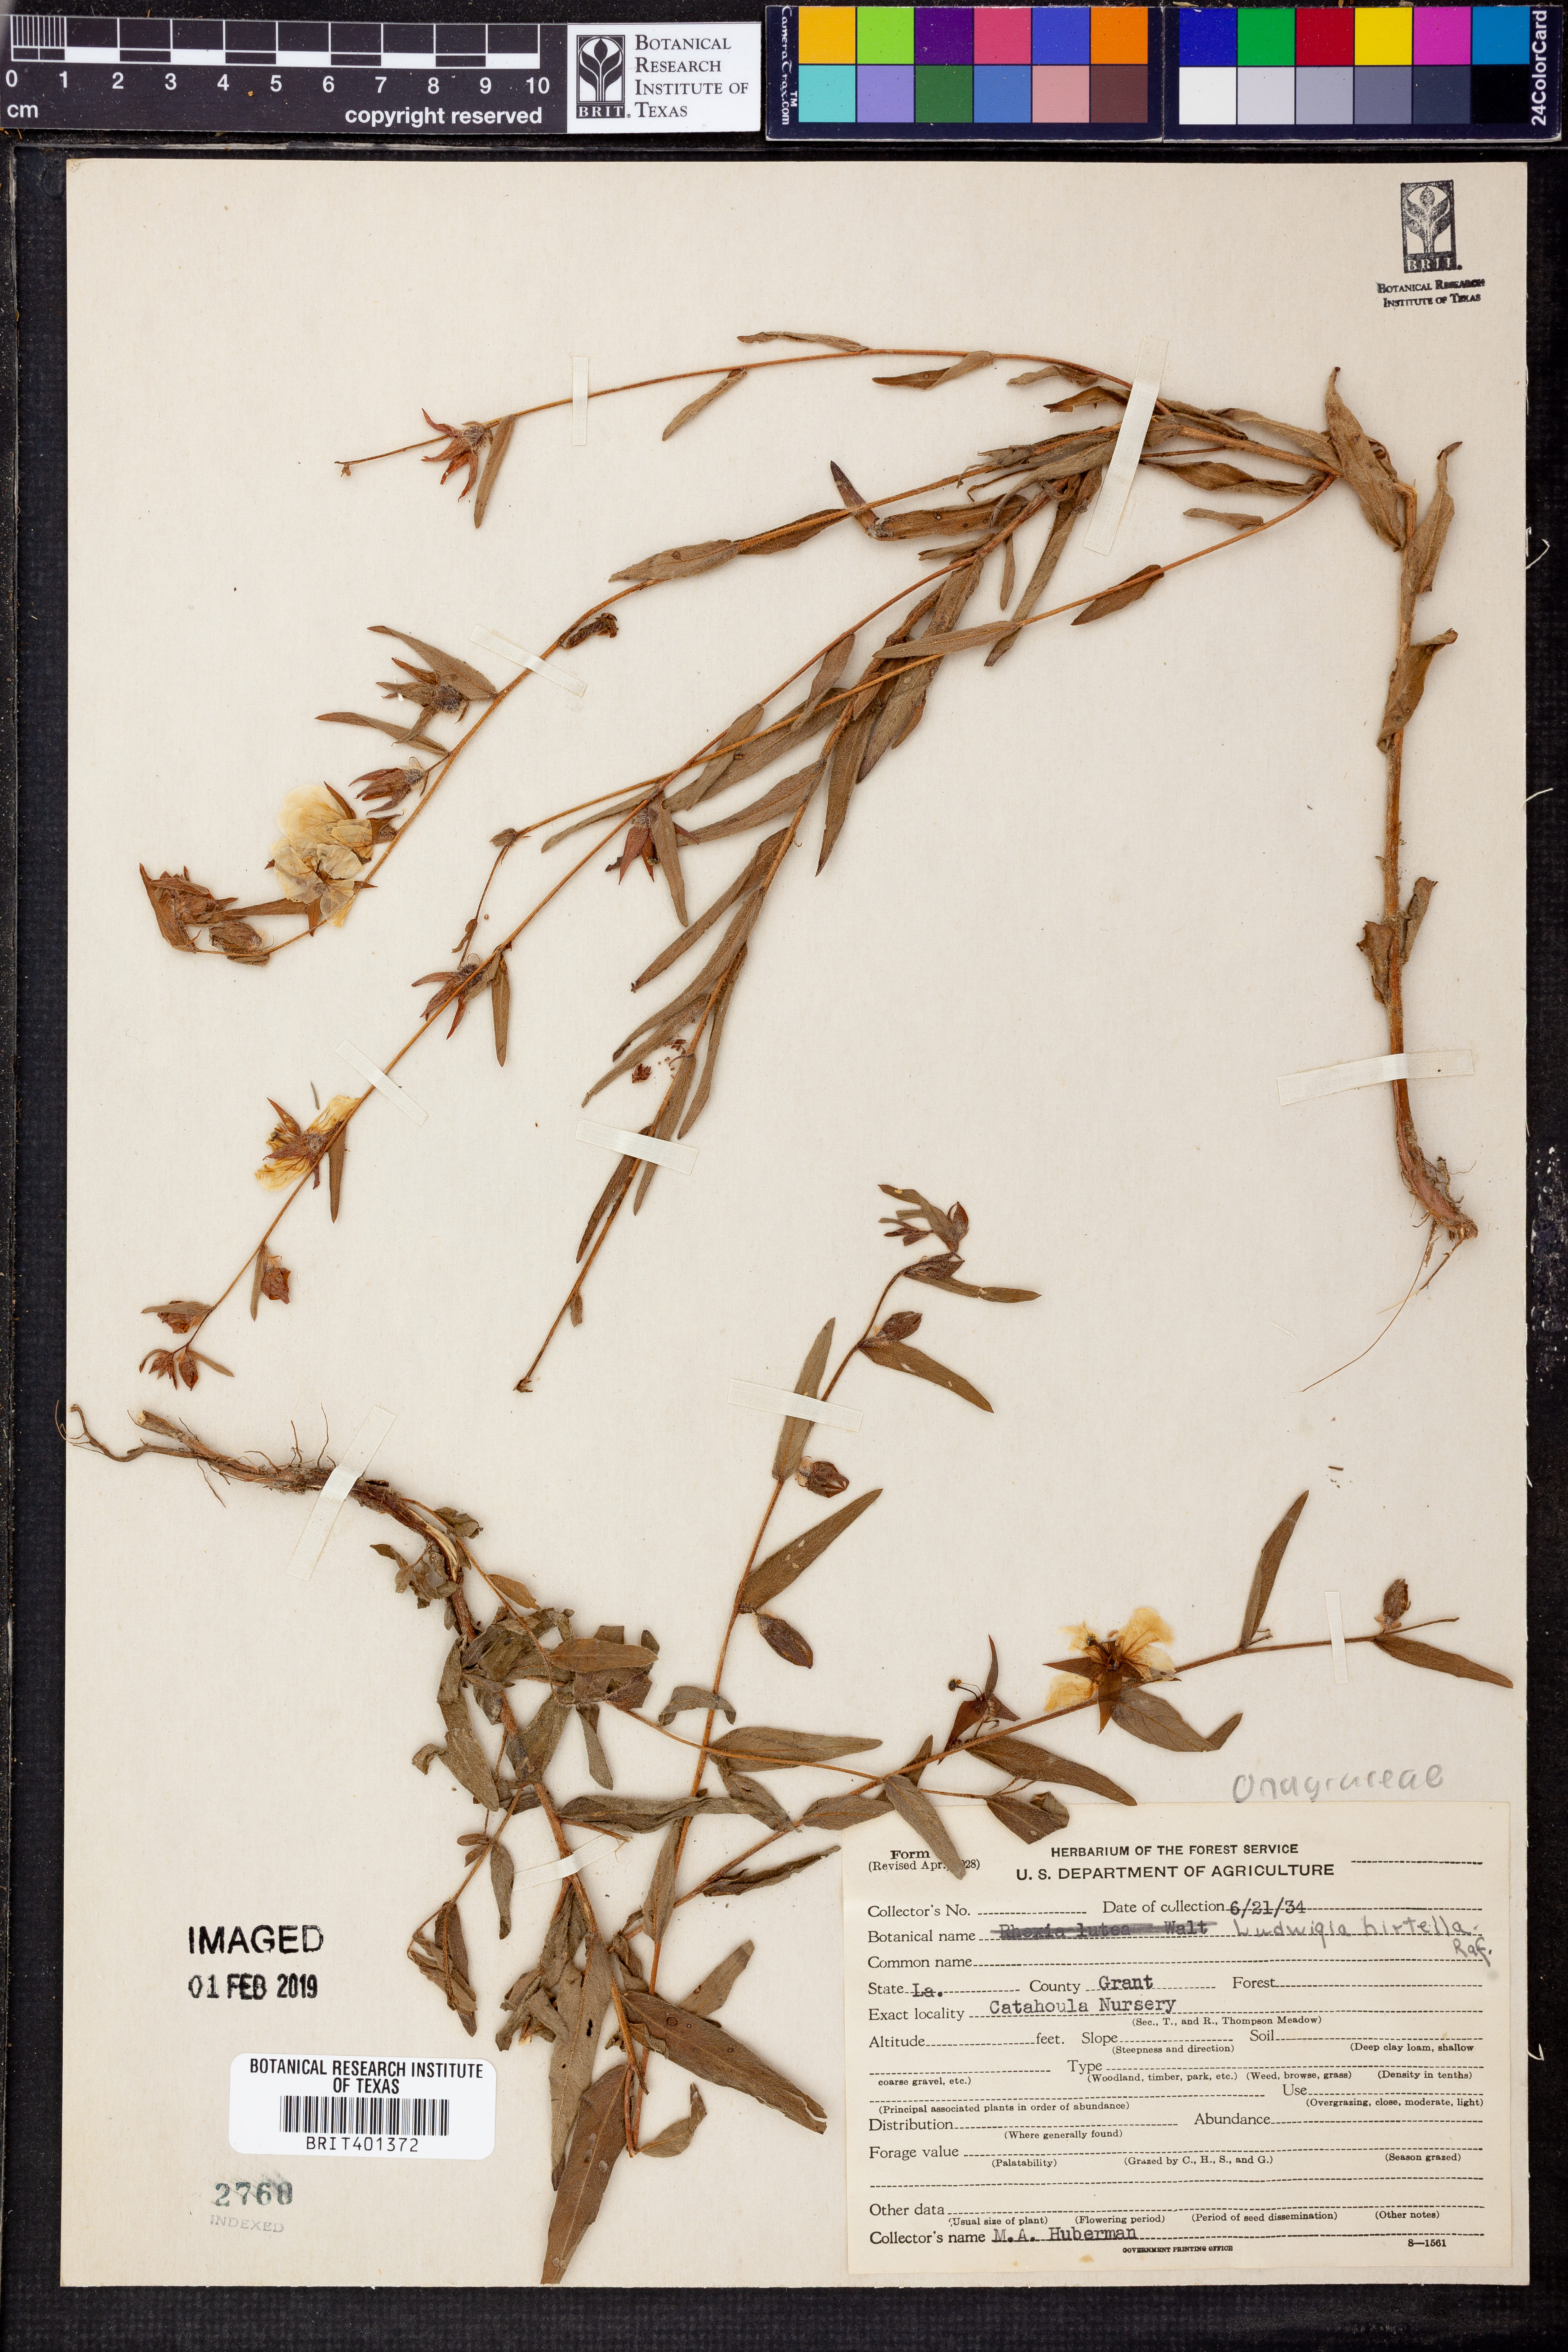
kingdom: Plantae
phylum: Tracheophyta
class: Magnoliopsida
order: Myrtales
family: Onagraceae
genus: Ludwigia
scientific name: Ludwigia hirtella
